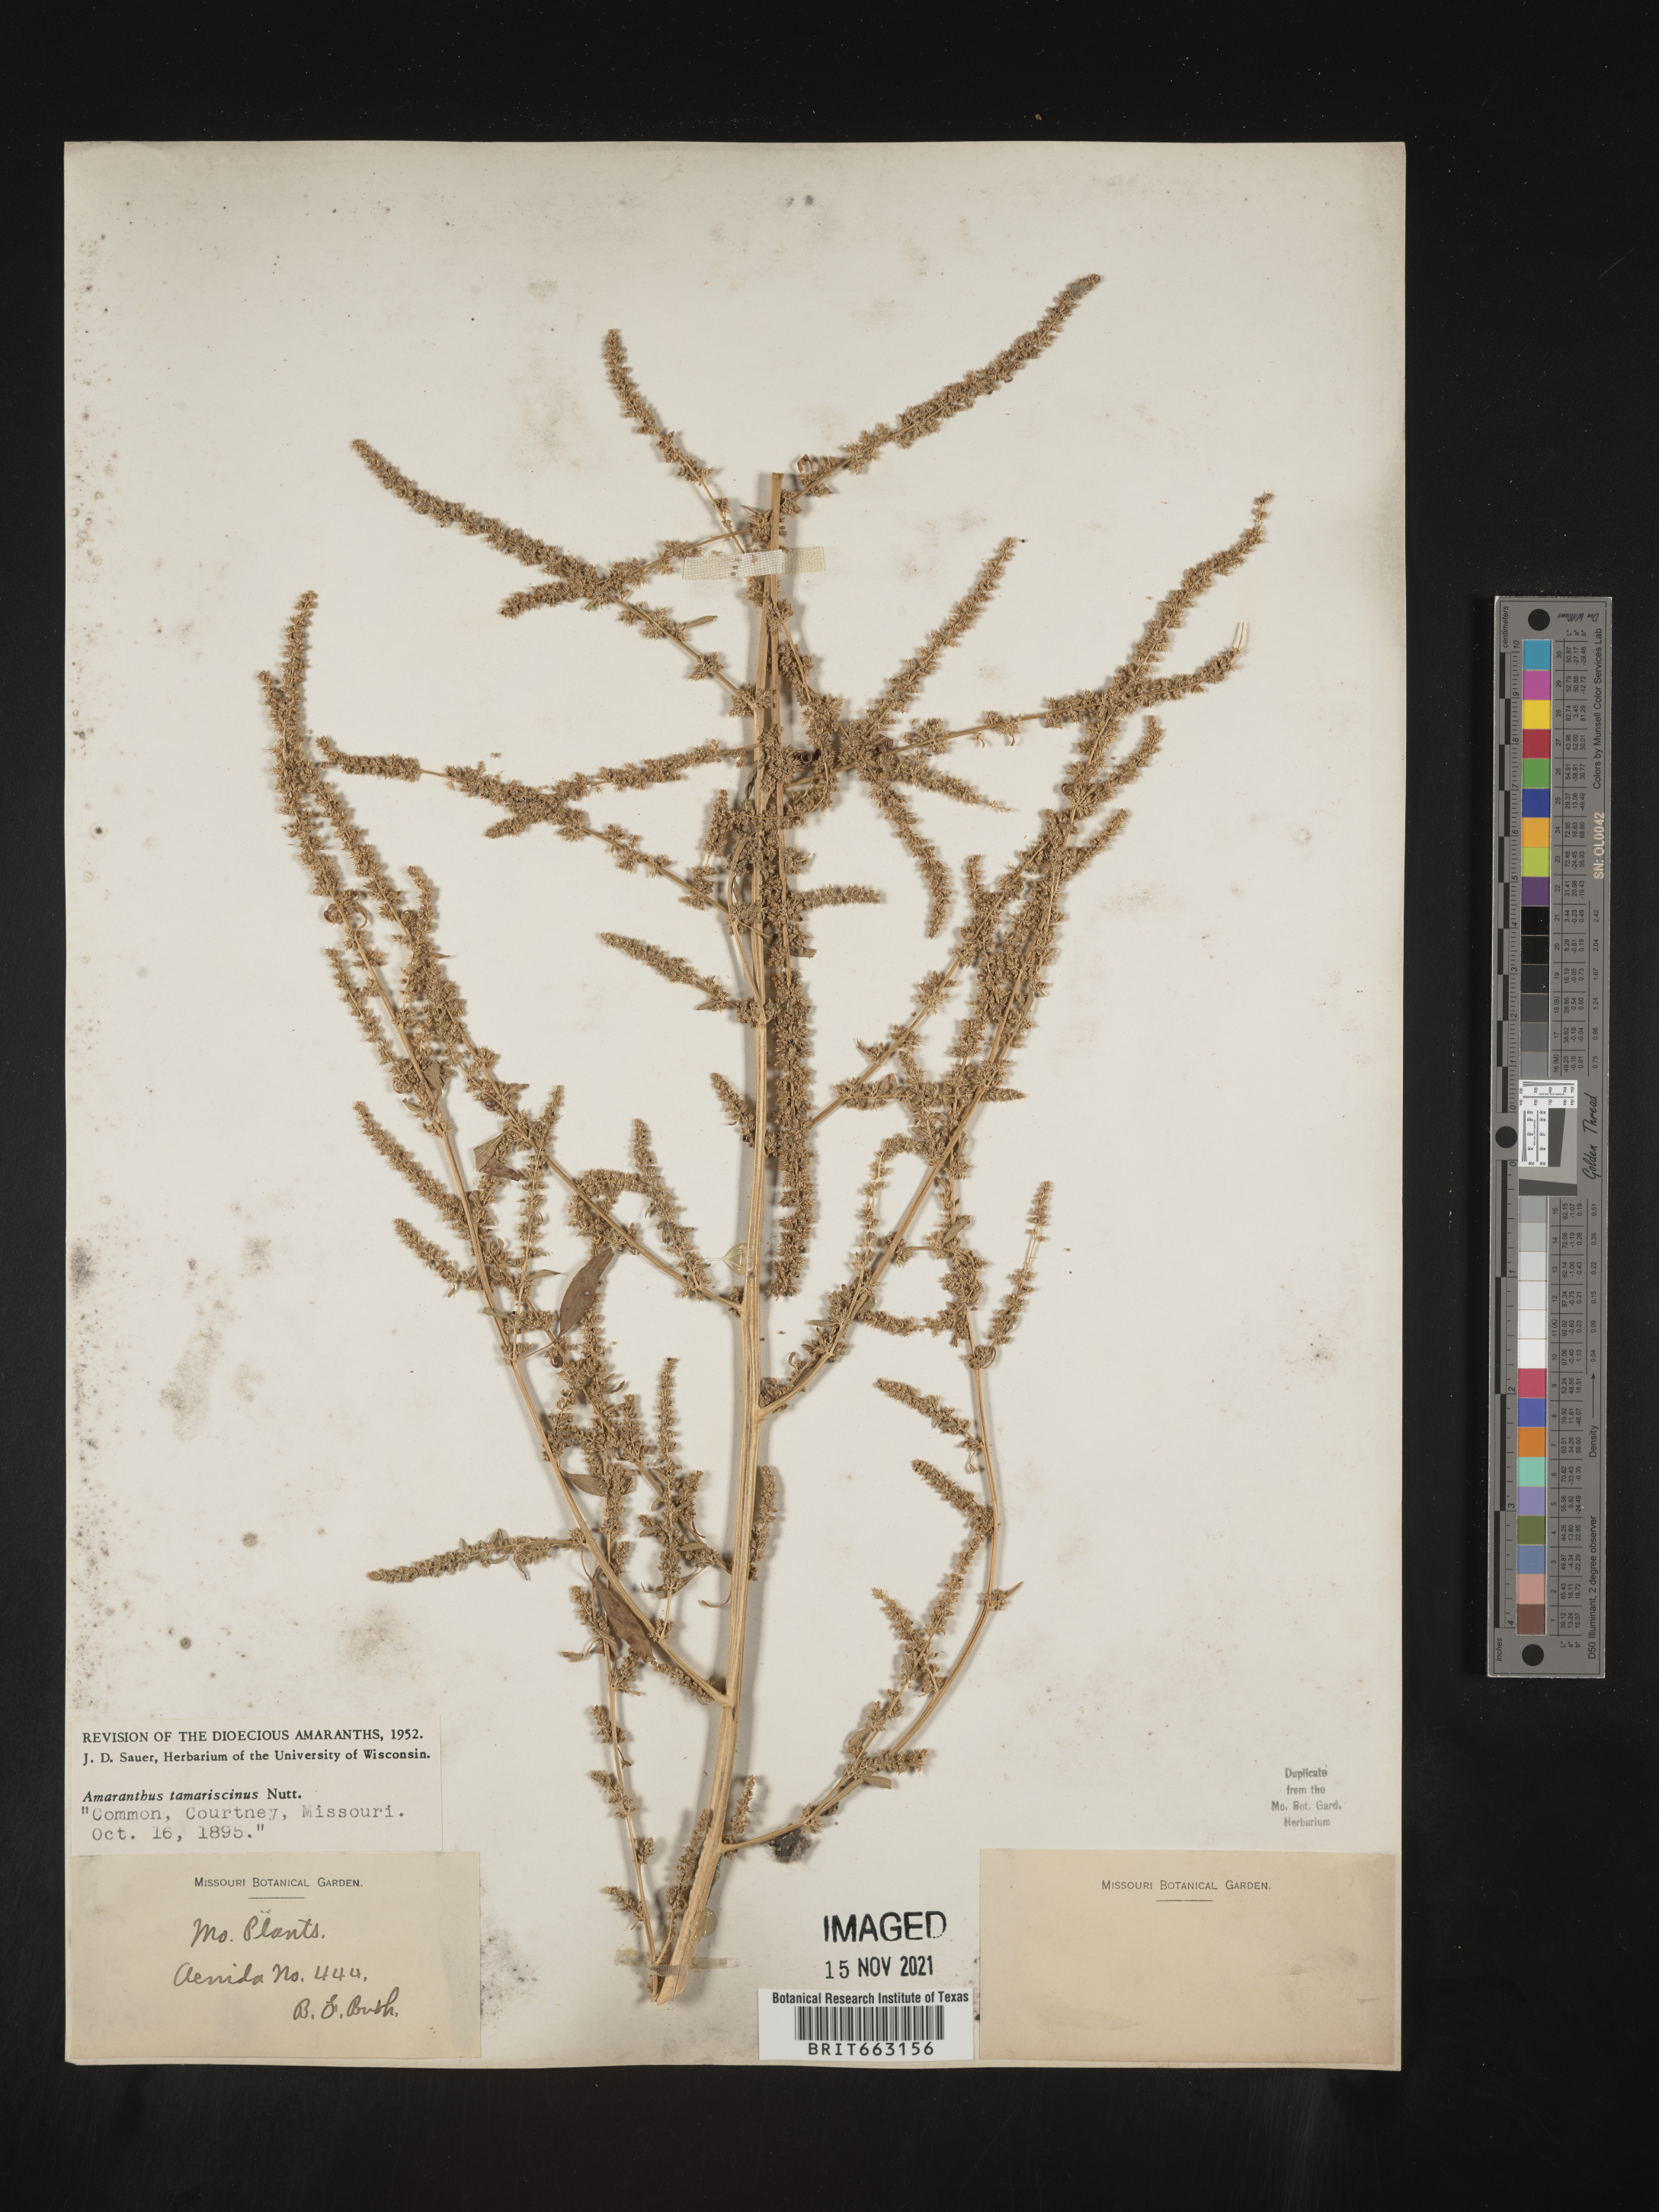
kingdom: Plantae
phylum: Tracheophyta
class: Magnoliopsida
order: Caryophyllales
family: Amaranthaceae
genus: Amaranthus
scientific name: Amaranthus tamariscinus
